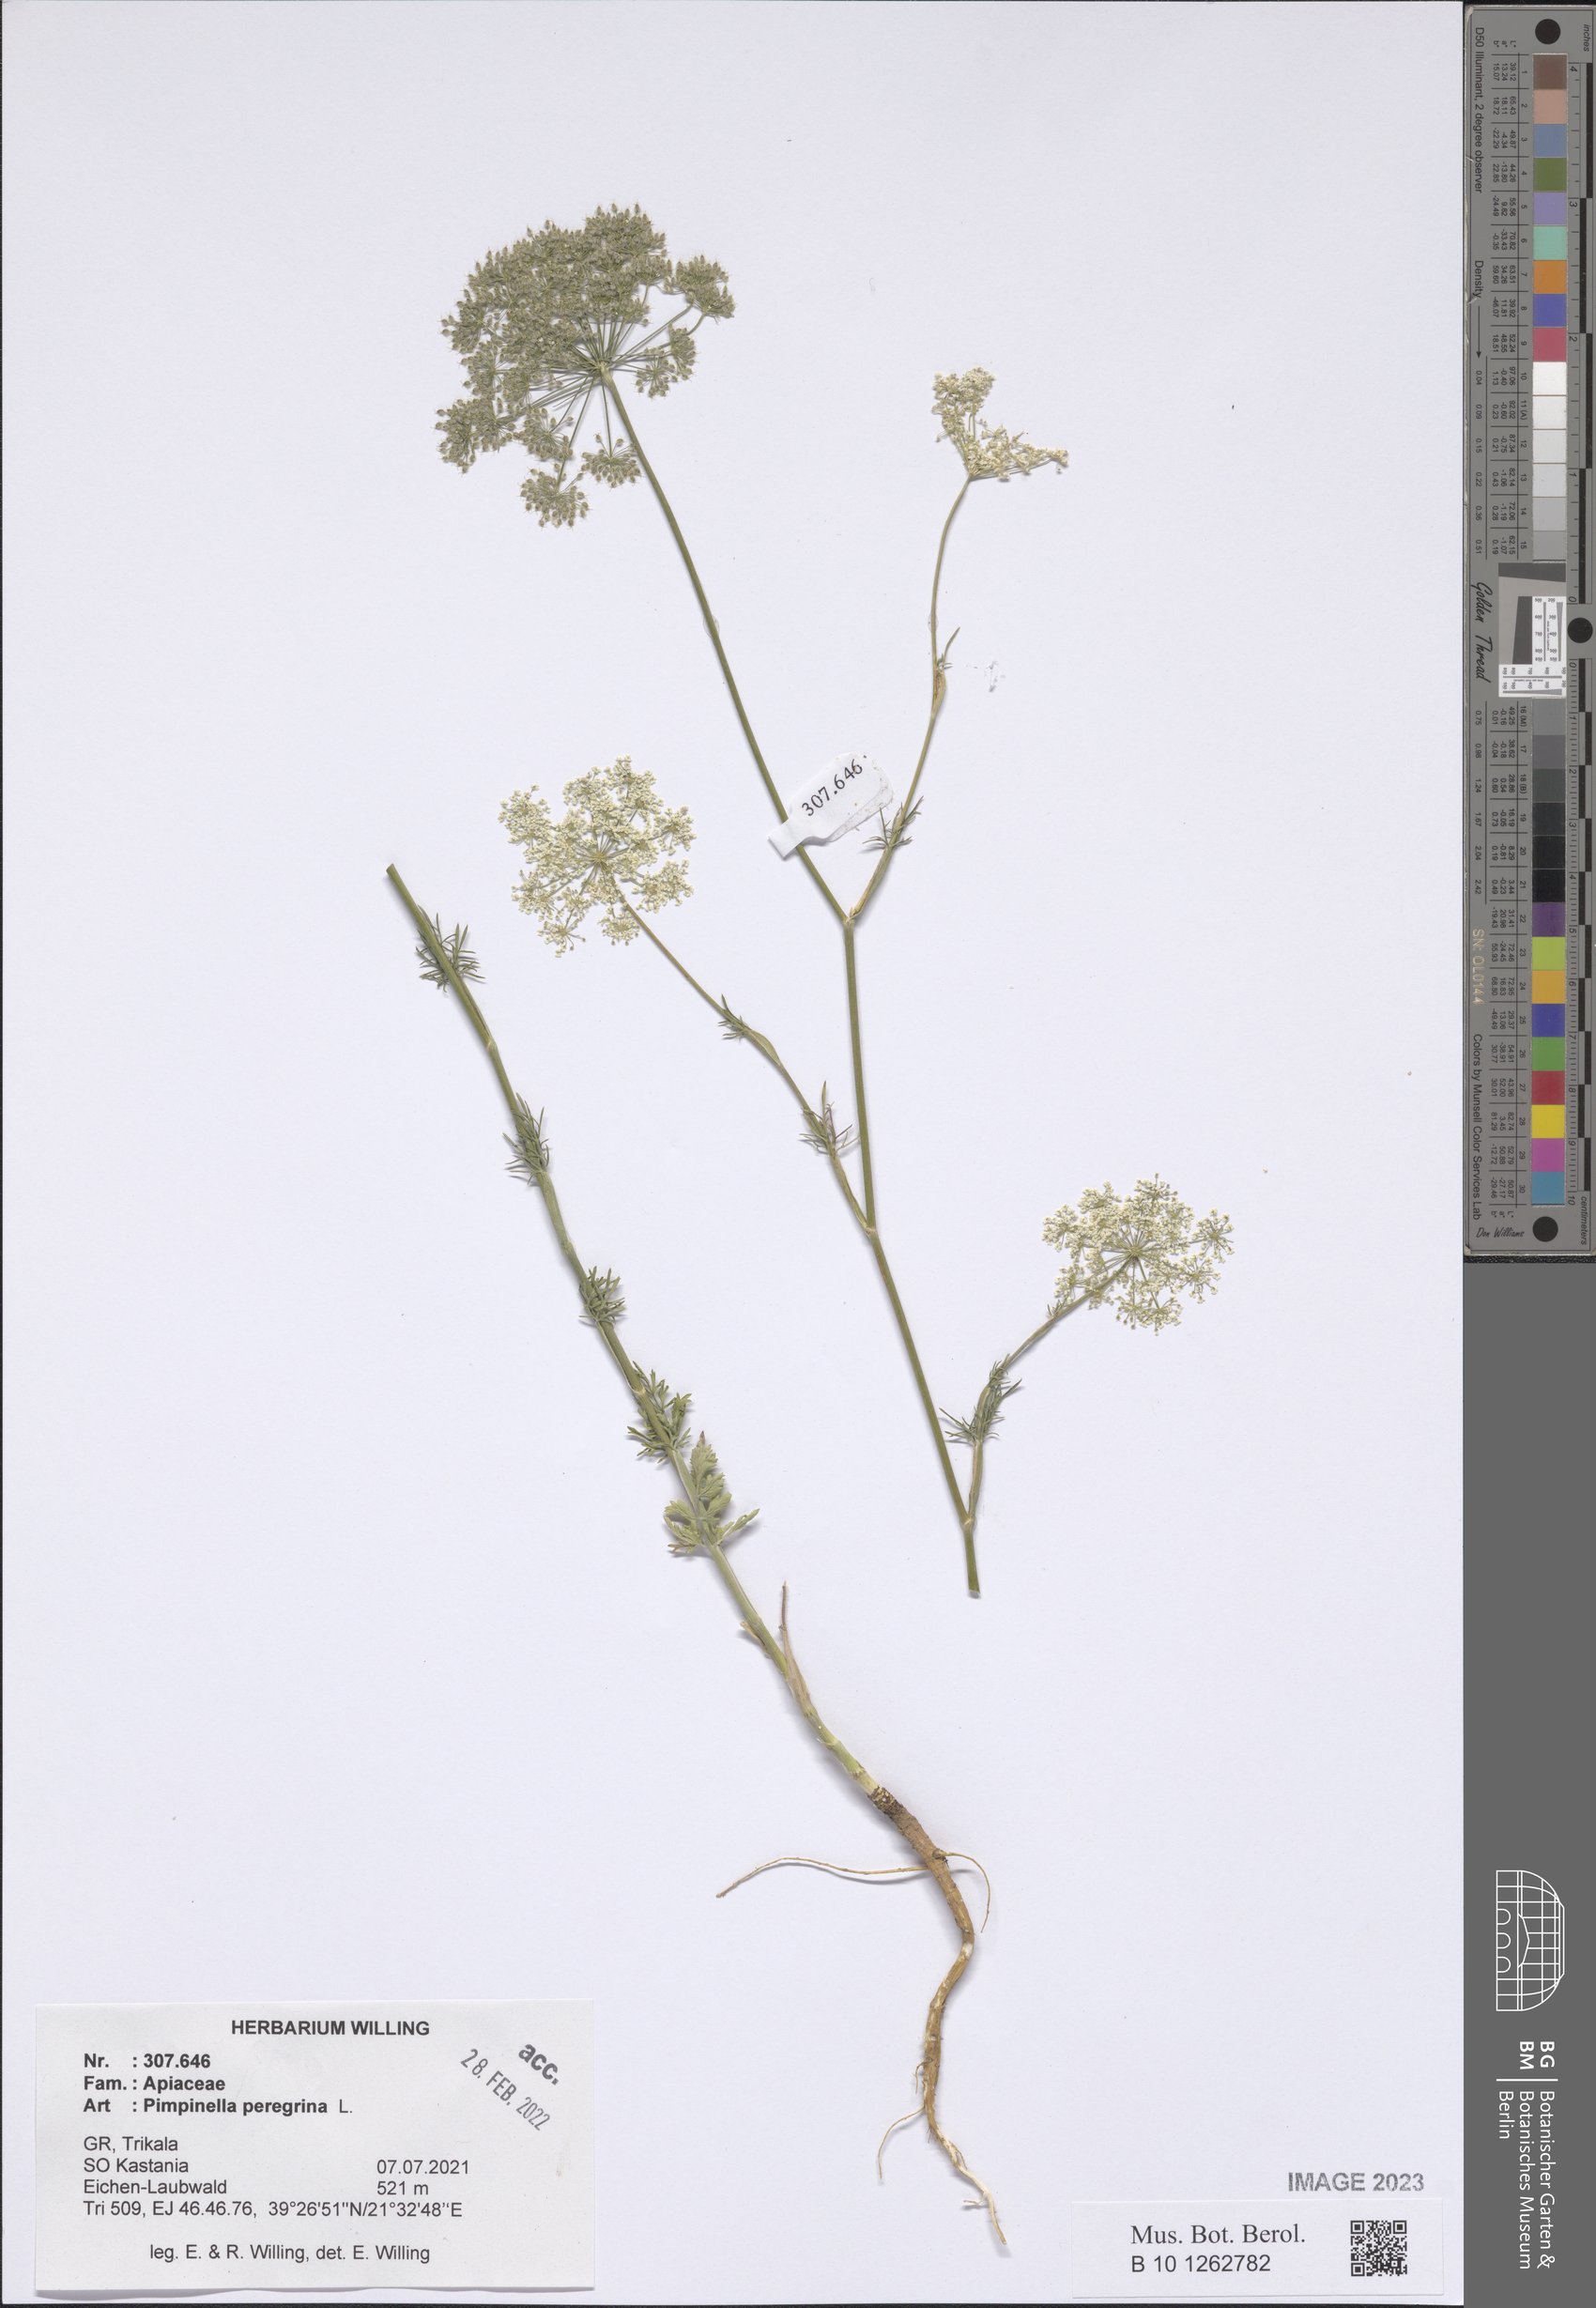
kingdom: Plantae
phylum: Tracheophyta
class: Magnoliopsida
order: Apiales
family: Apiaceae
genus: Pimpinella
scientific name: Pimpinella peregrina
